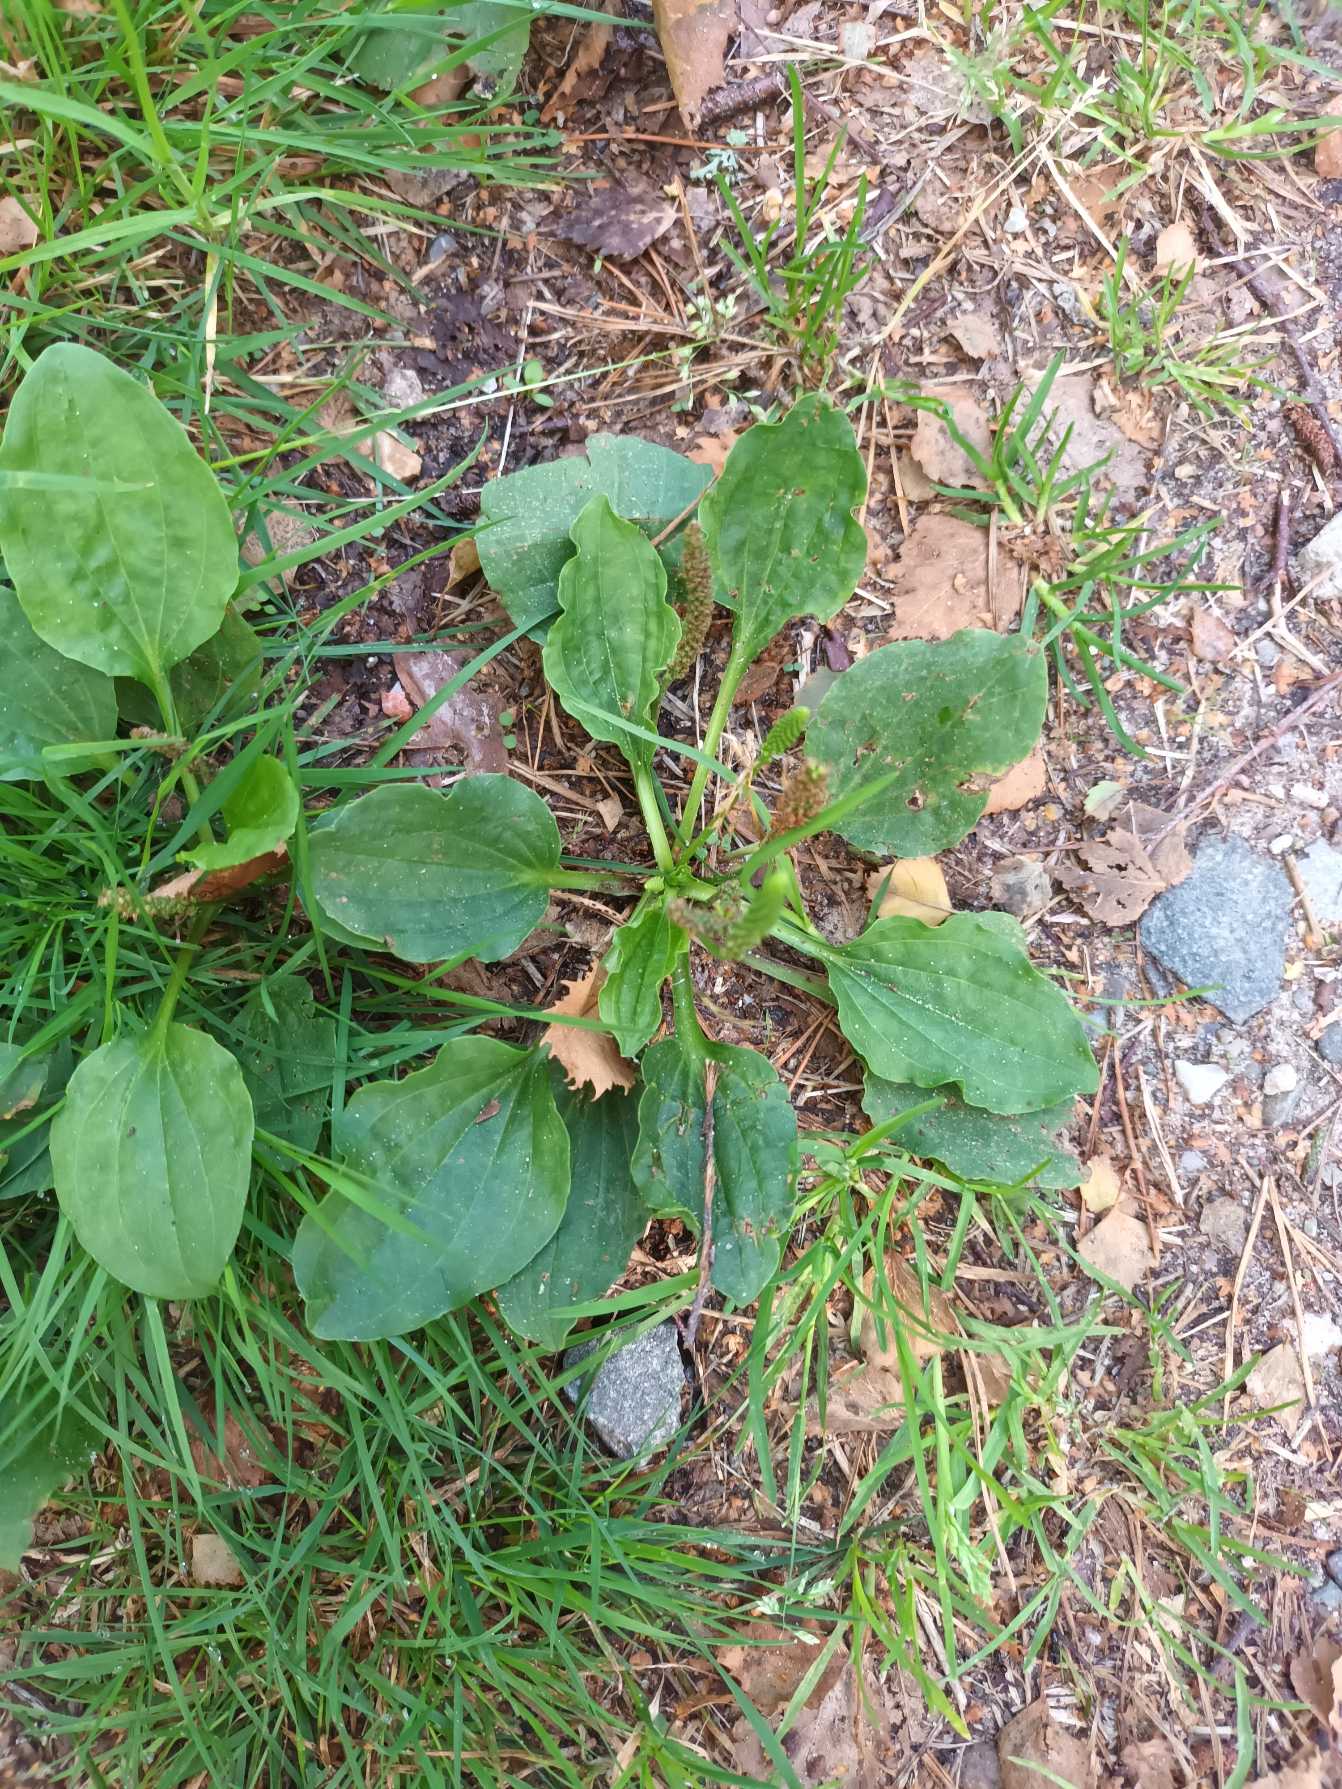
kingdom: Plantae
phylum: Tracheophyta
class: Magnoliopsida
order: Lamiales
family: Plantaginaceae
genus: Plantago
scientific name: Plantago major
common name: Glat vejbred
